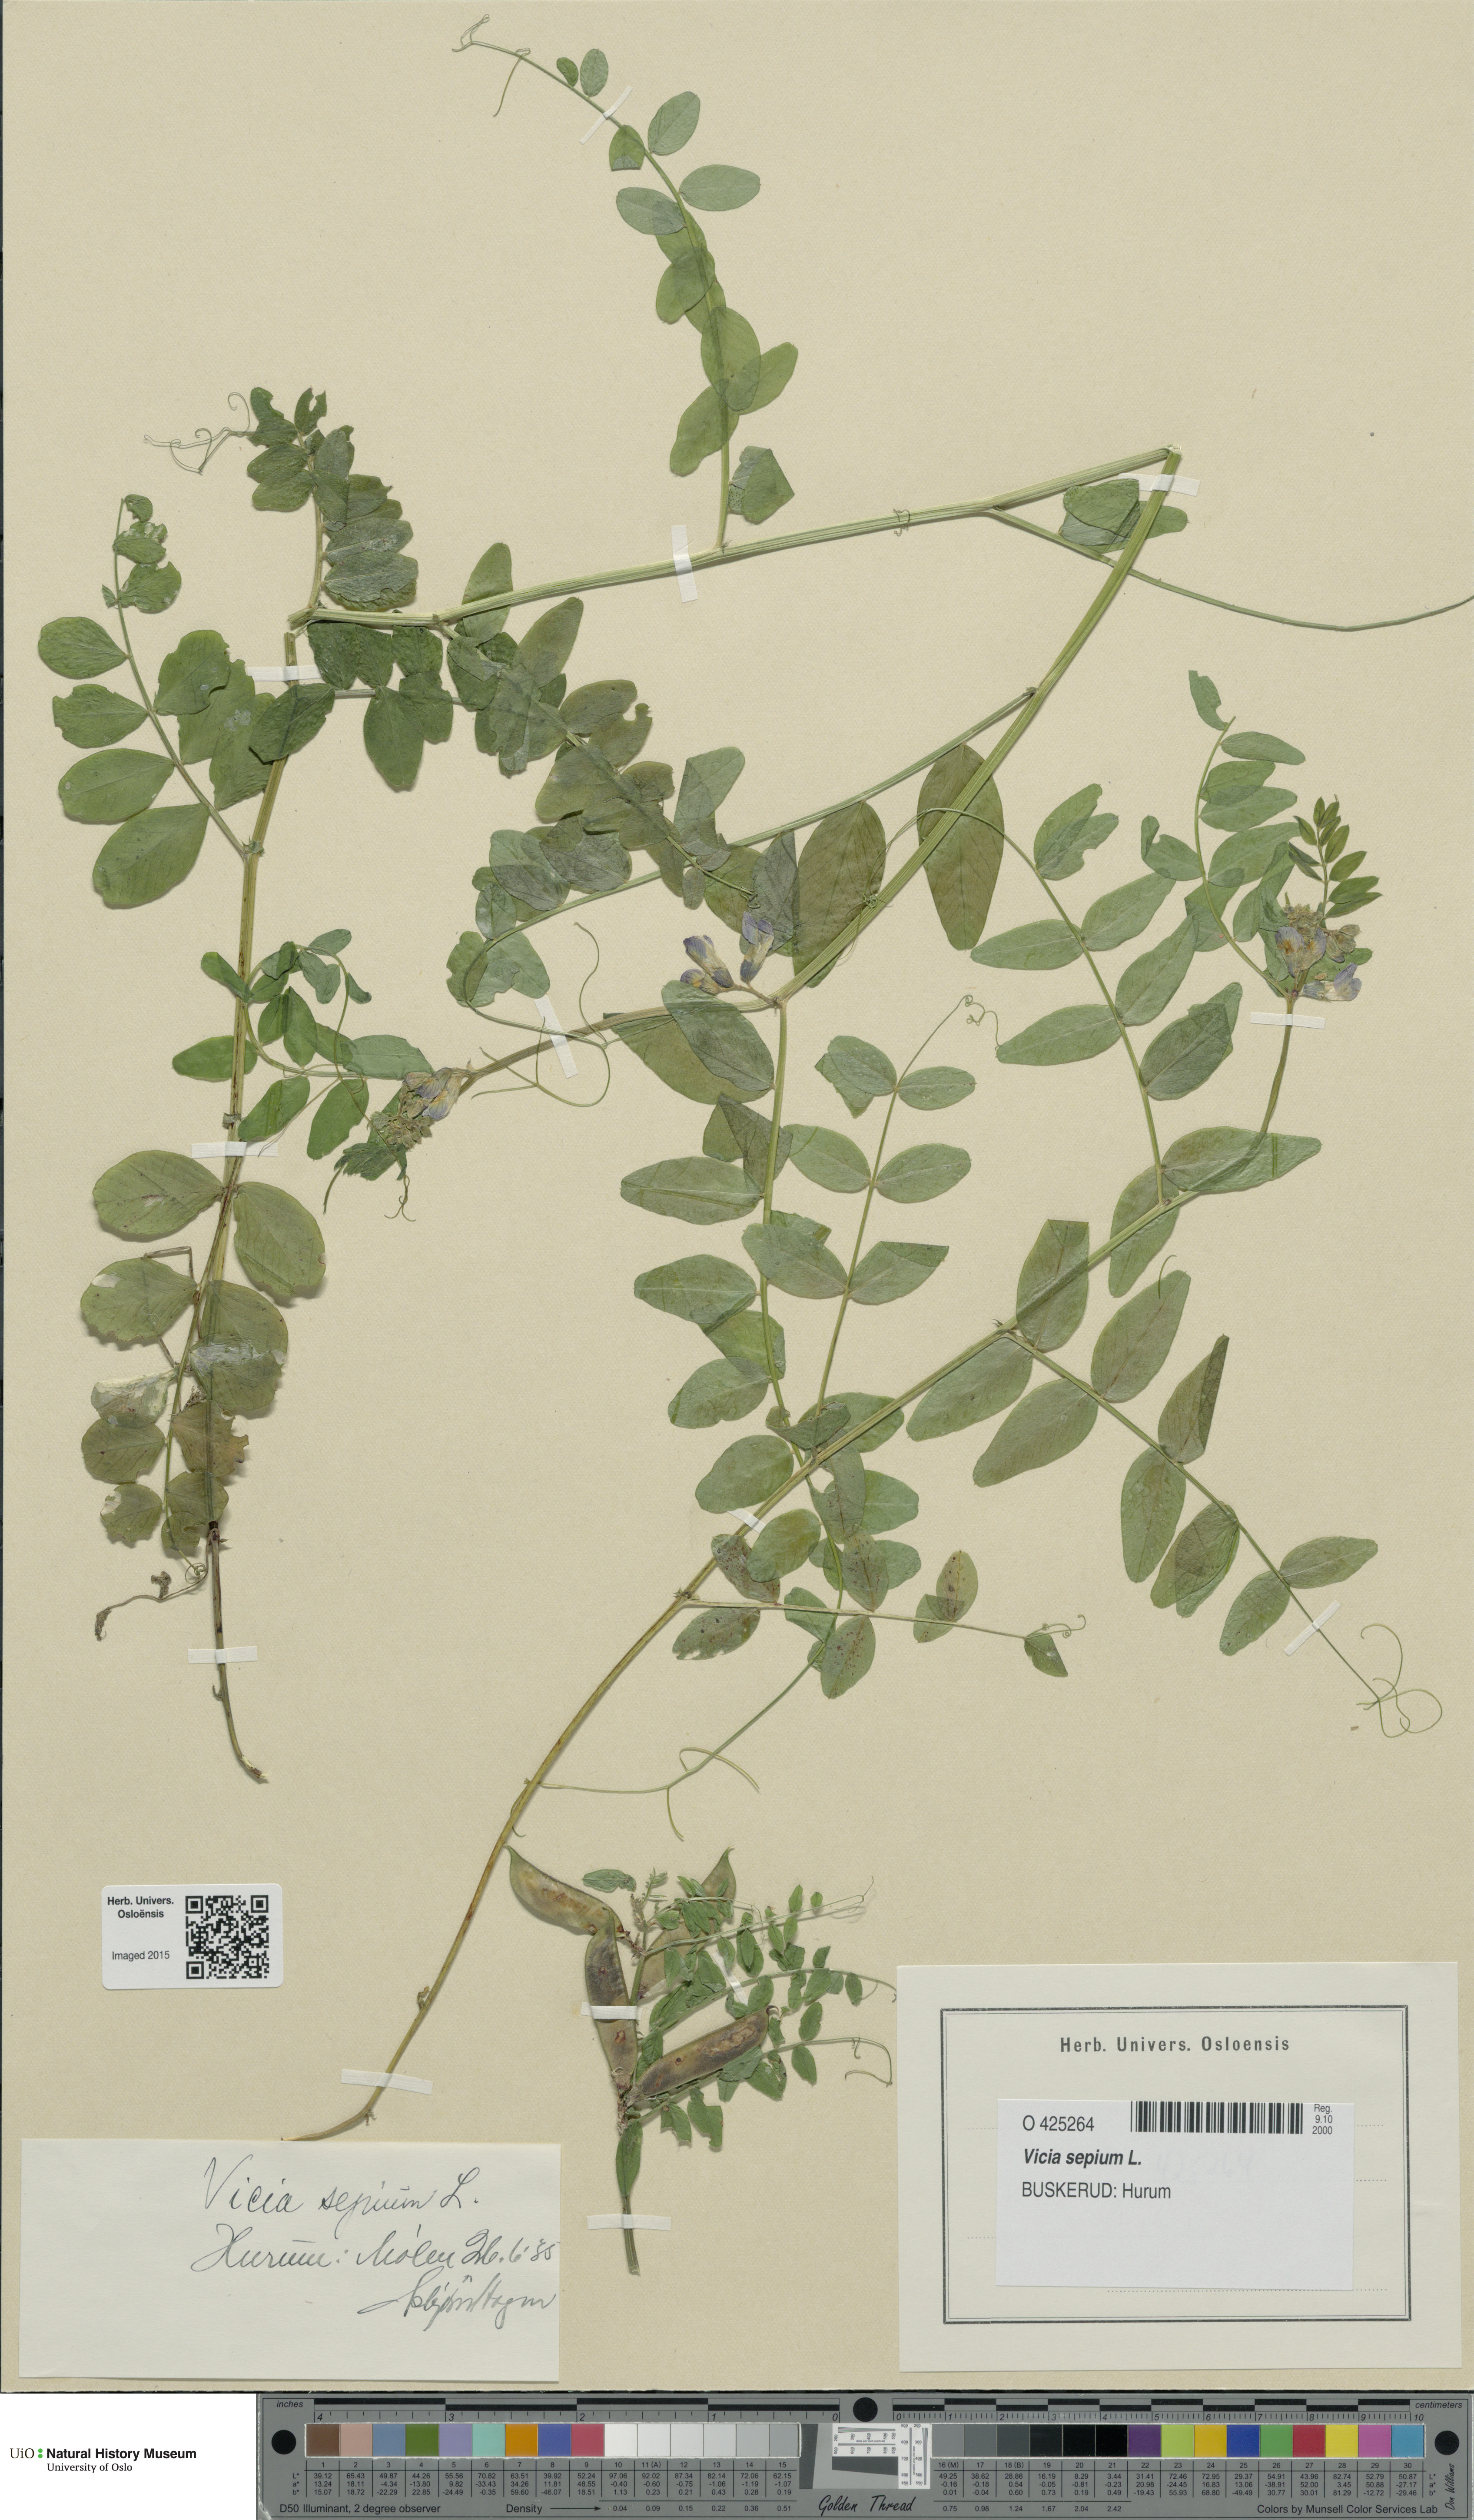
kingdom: Plantae
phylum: Tracheophyta
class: Magnoliopsida
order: Fabales
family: Fabaceae
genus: Vicia
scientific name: Vicia sepium
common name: Bush vetch
